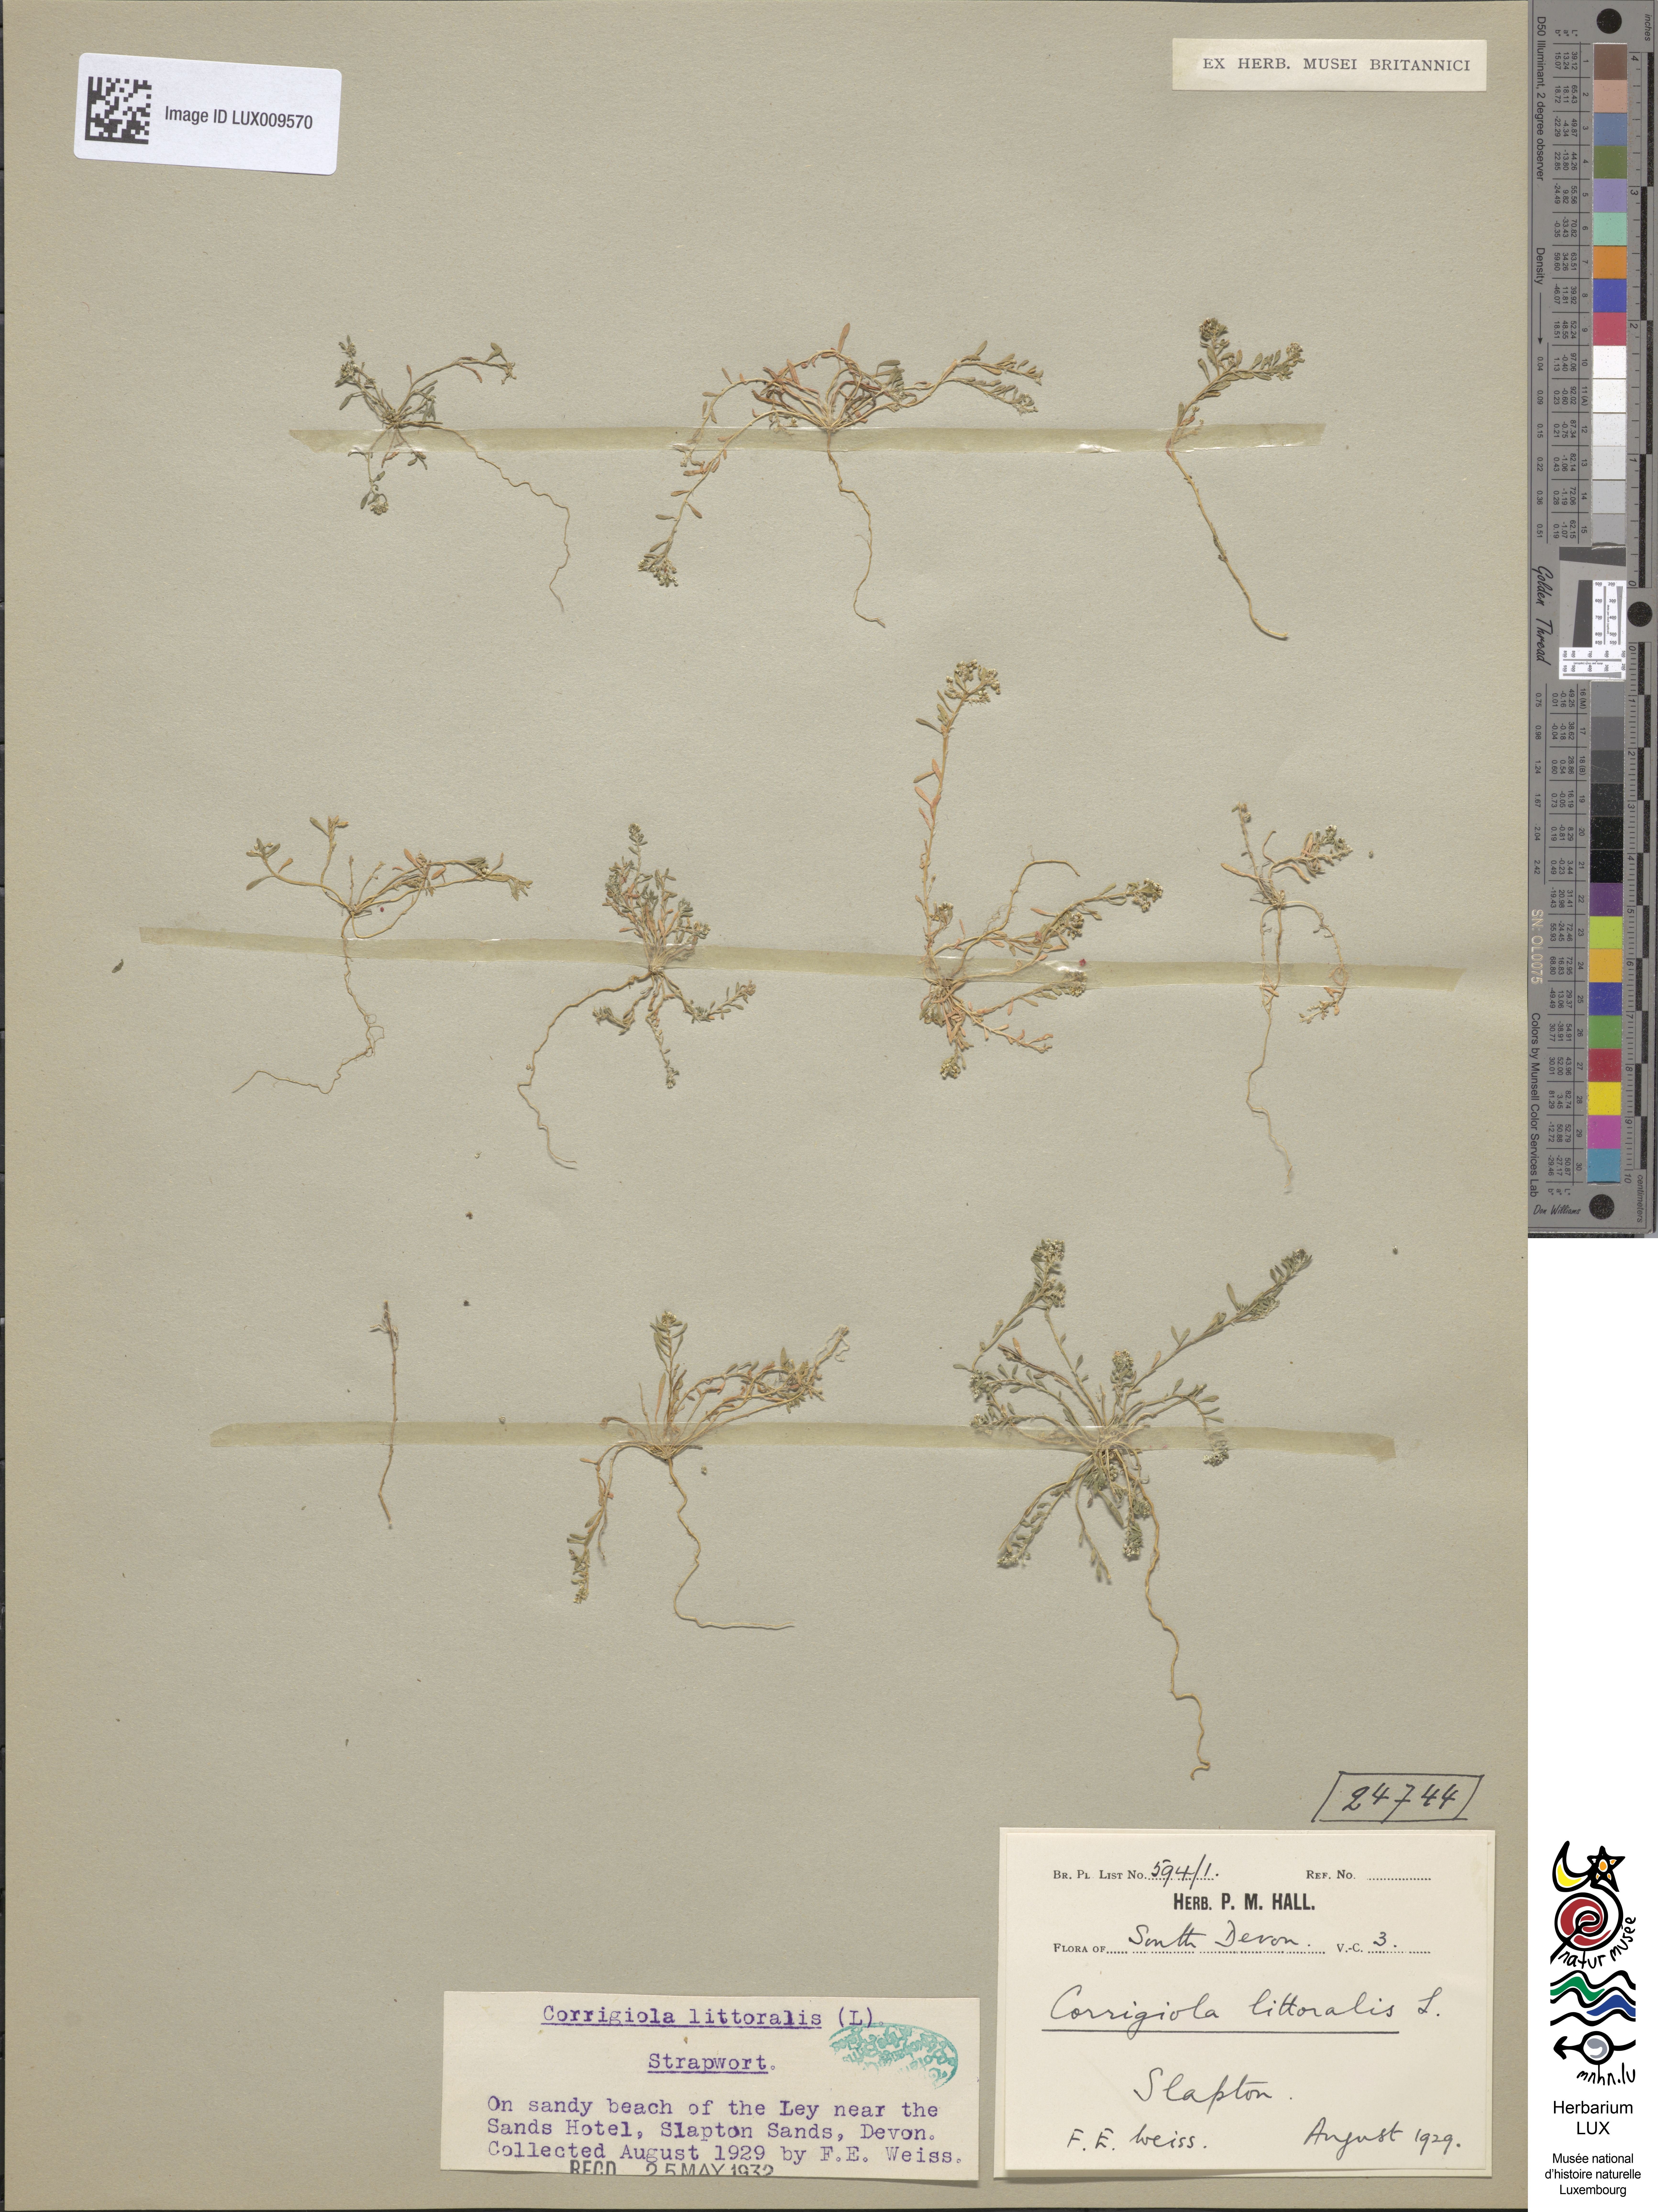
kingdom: Plantae
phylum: Tracheophyta
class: Magnoliopsida
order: Caryophyllales
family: Caryophyllaceae
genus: Corrigiola
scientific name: Corrigiola litoralis
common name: Strapwort
